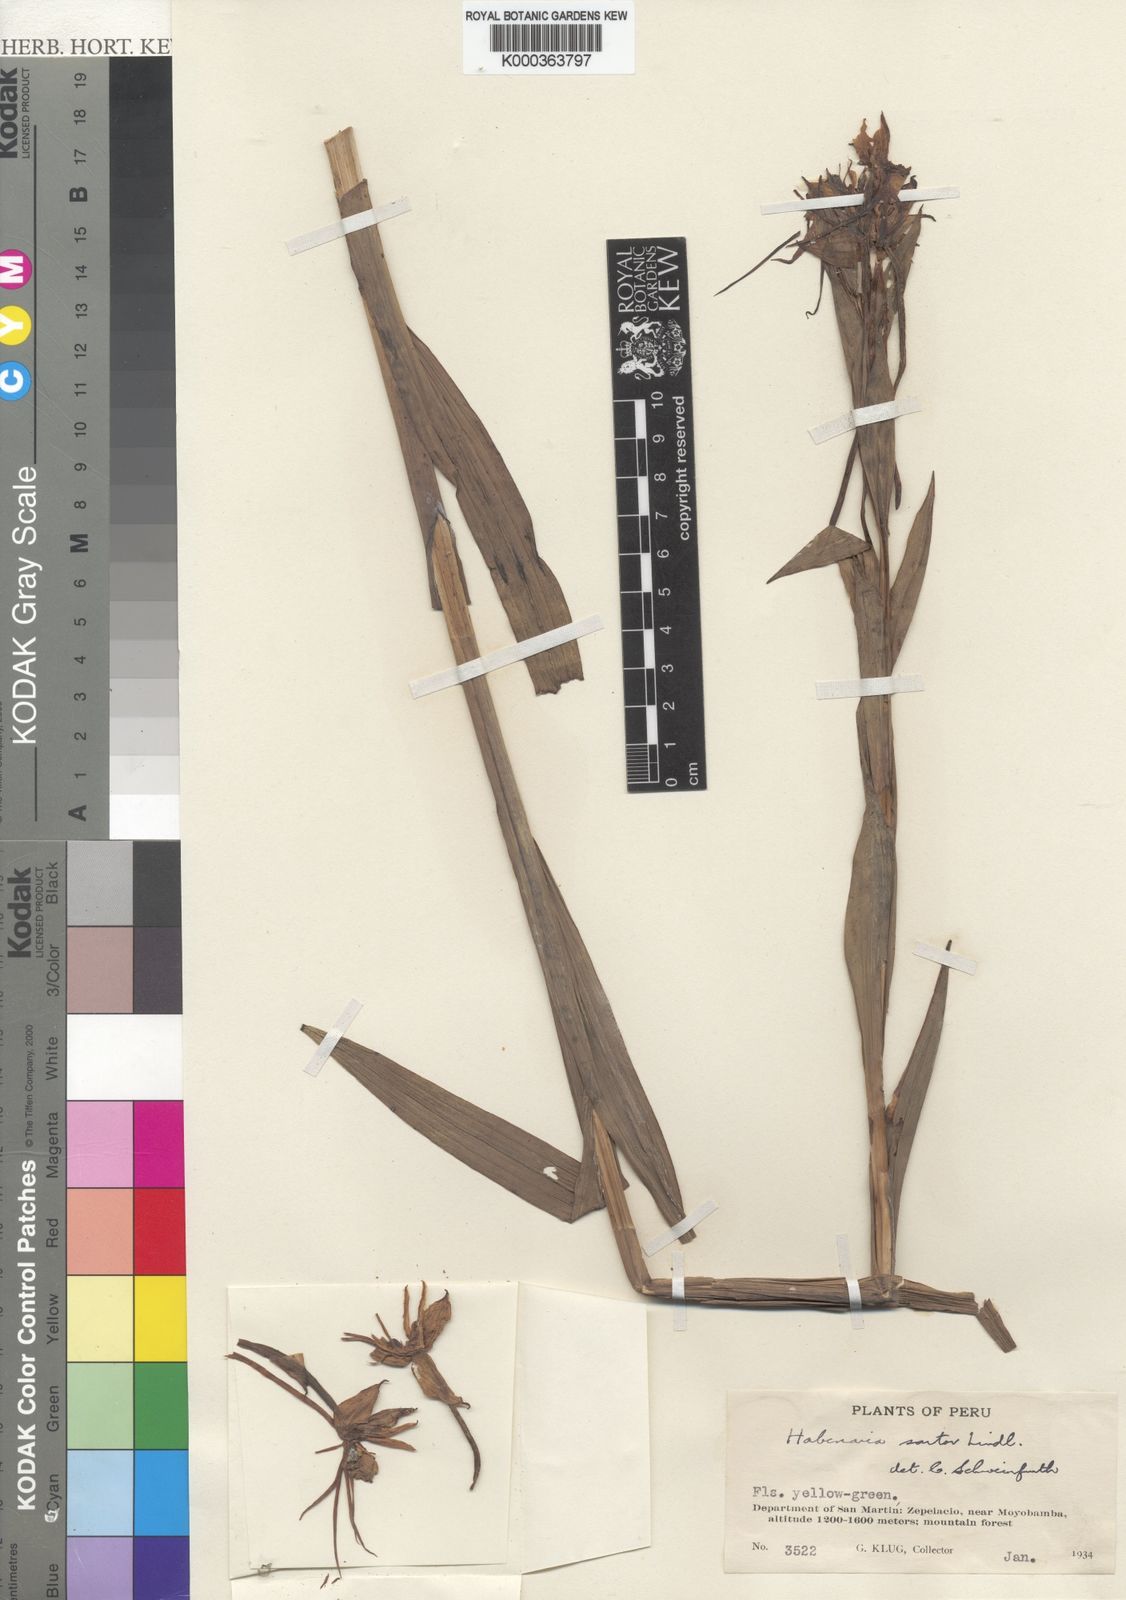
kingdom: Plantae
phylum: Tracheophyta
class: Liliopsida
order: Asparagales
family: Orchidaceae
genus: Habenaria
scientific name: Habenaria sartor
